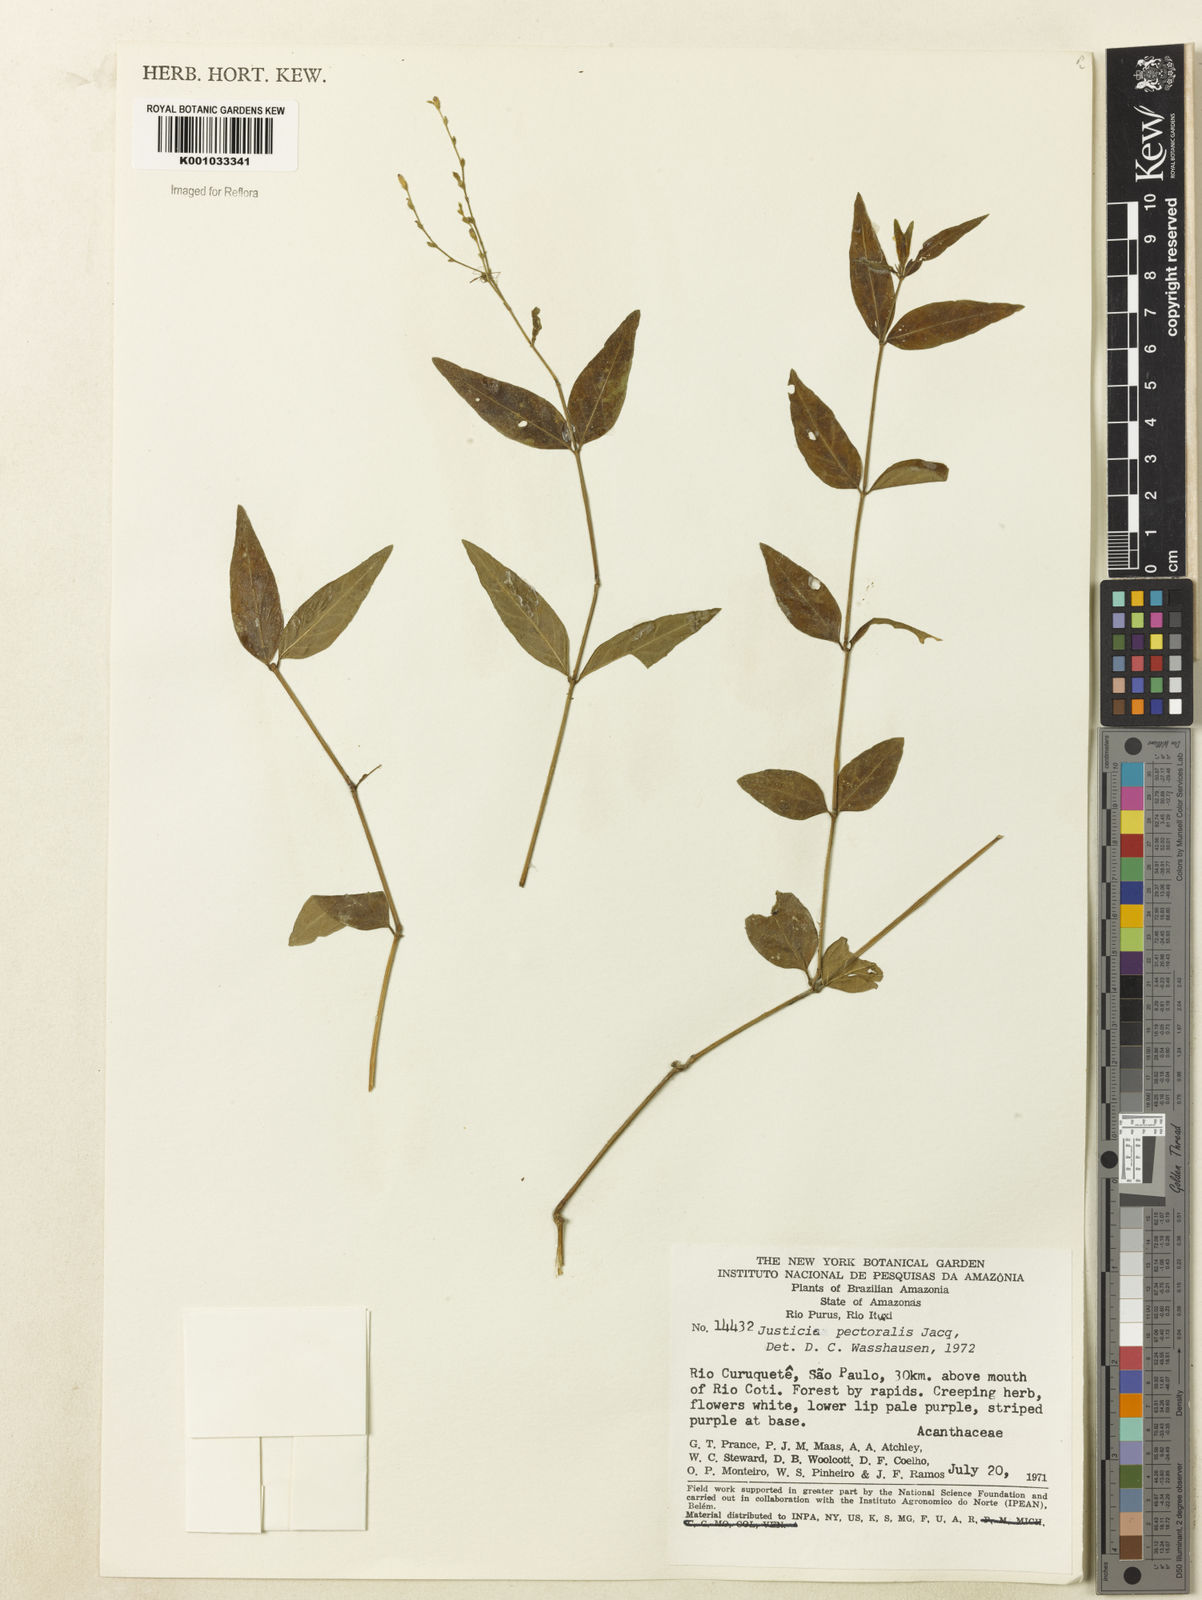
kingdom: Plantae
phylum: Tracheophyta
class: Magnoliopsida
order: Lamiales
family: Acanthaceae
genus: Dianthera
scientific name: Dianthera pectoralis
